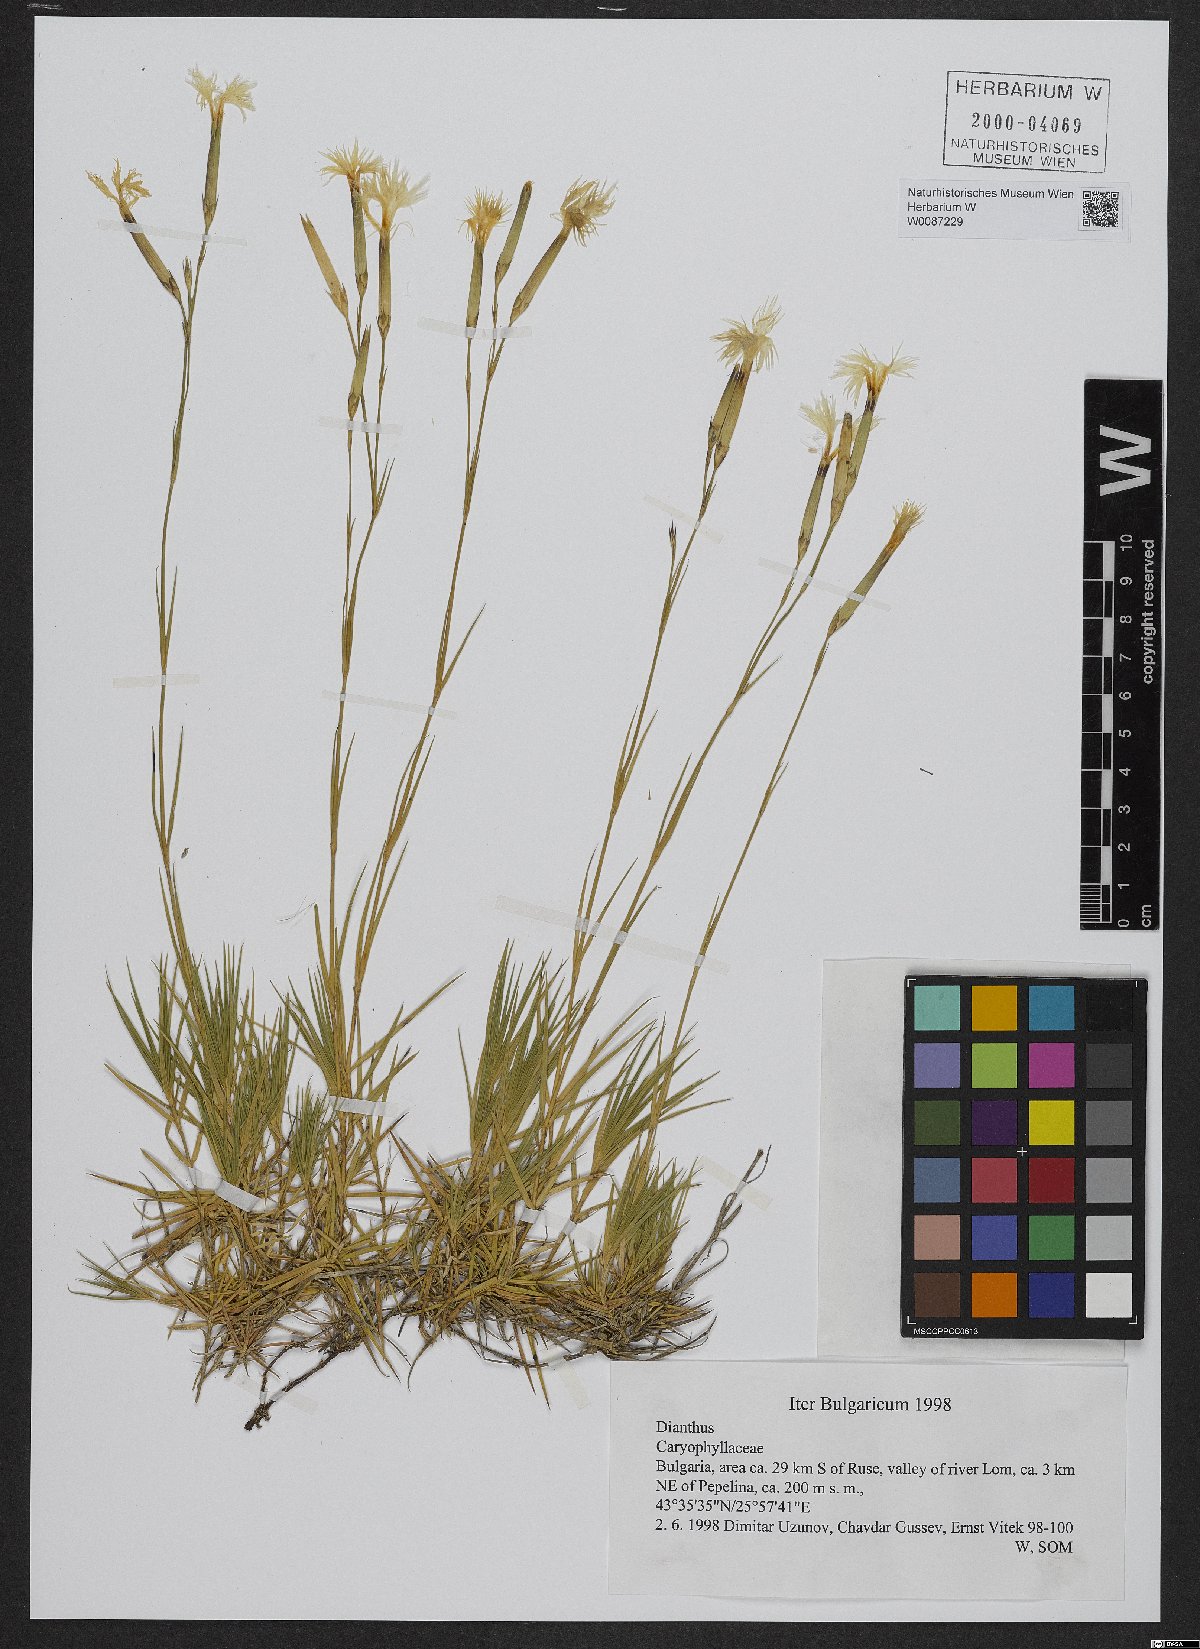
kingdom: Plantae
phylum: Tracheophyta
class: Magnoliopsida
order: Caryophyllales
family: Caryophyllaceae
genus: Dianthus
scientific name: Dianthus
